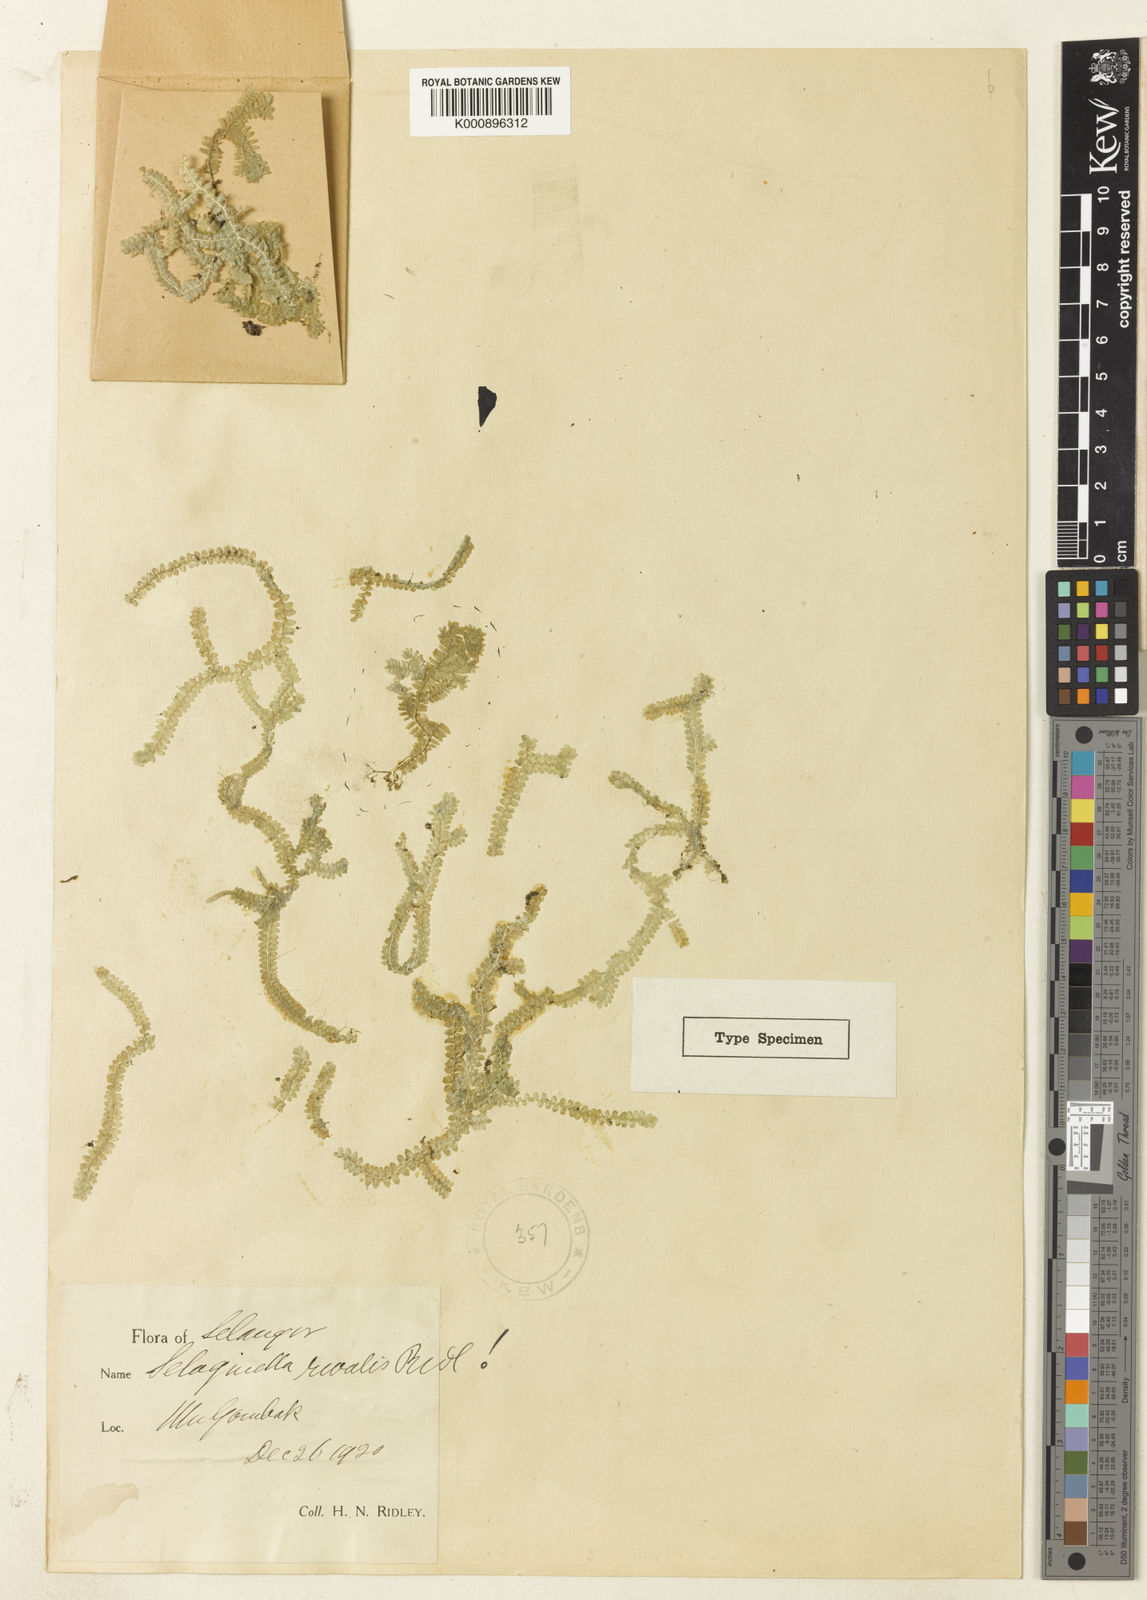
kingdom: Plantae
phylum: Tracheophyta
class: Lycopodiopsida
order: Selaginellales
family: Selaginellaceae
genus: Selaginella
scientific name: Selaginella rivalis
